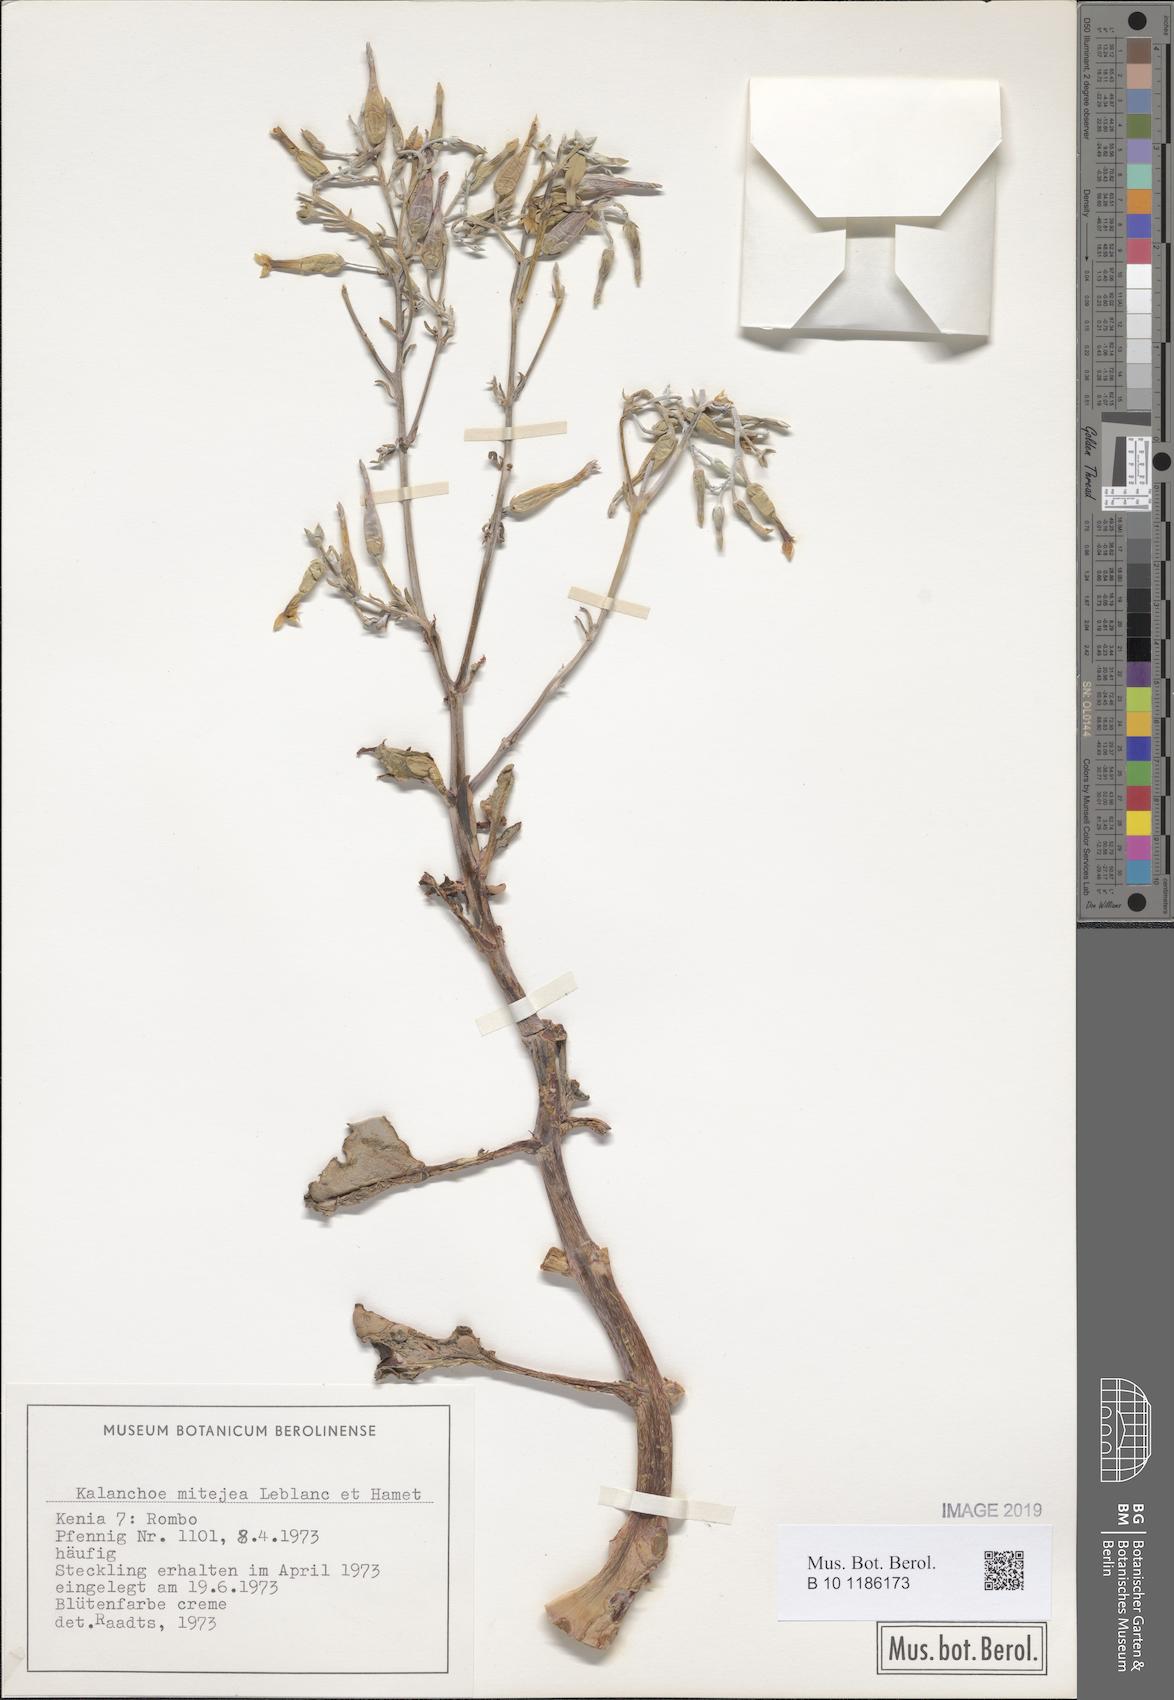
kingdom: Plantae
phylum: Tracheophyta
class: Magnoliopsida
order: Saxifragales
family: Crassulaceae
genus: Kalanchoe
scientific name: Kalanchoe mitejea
